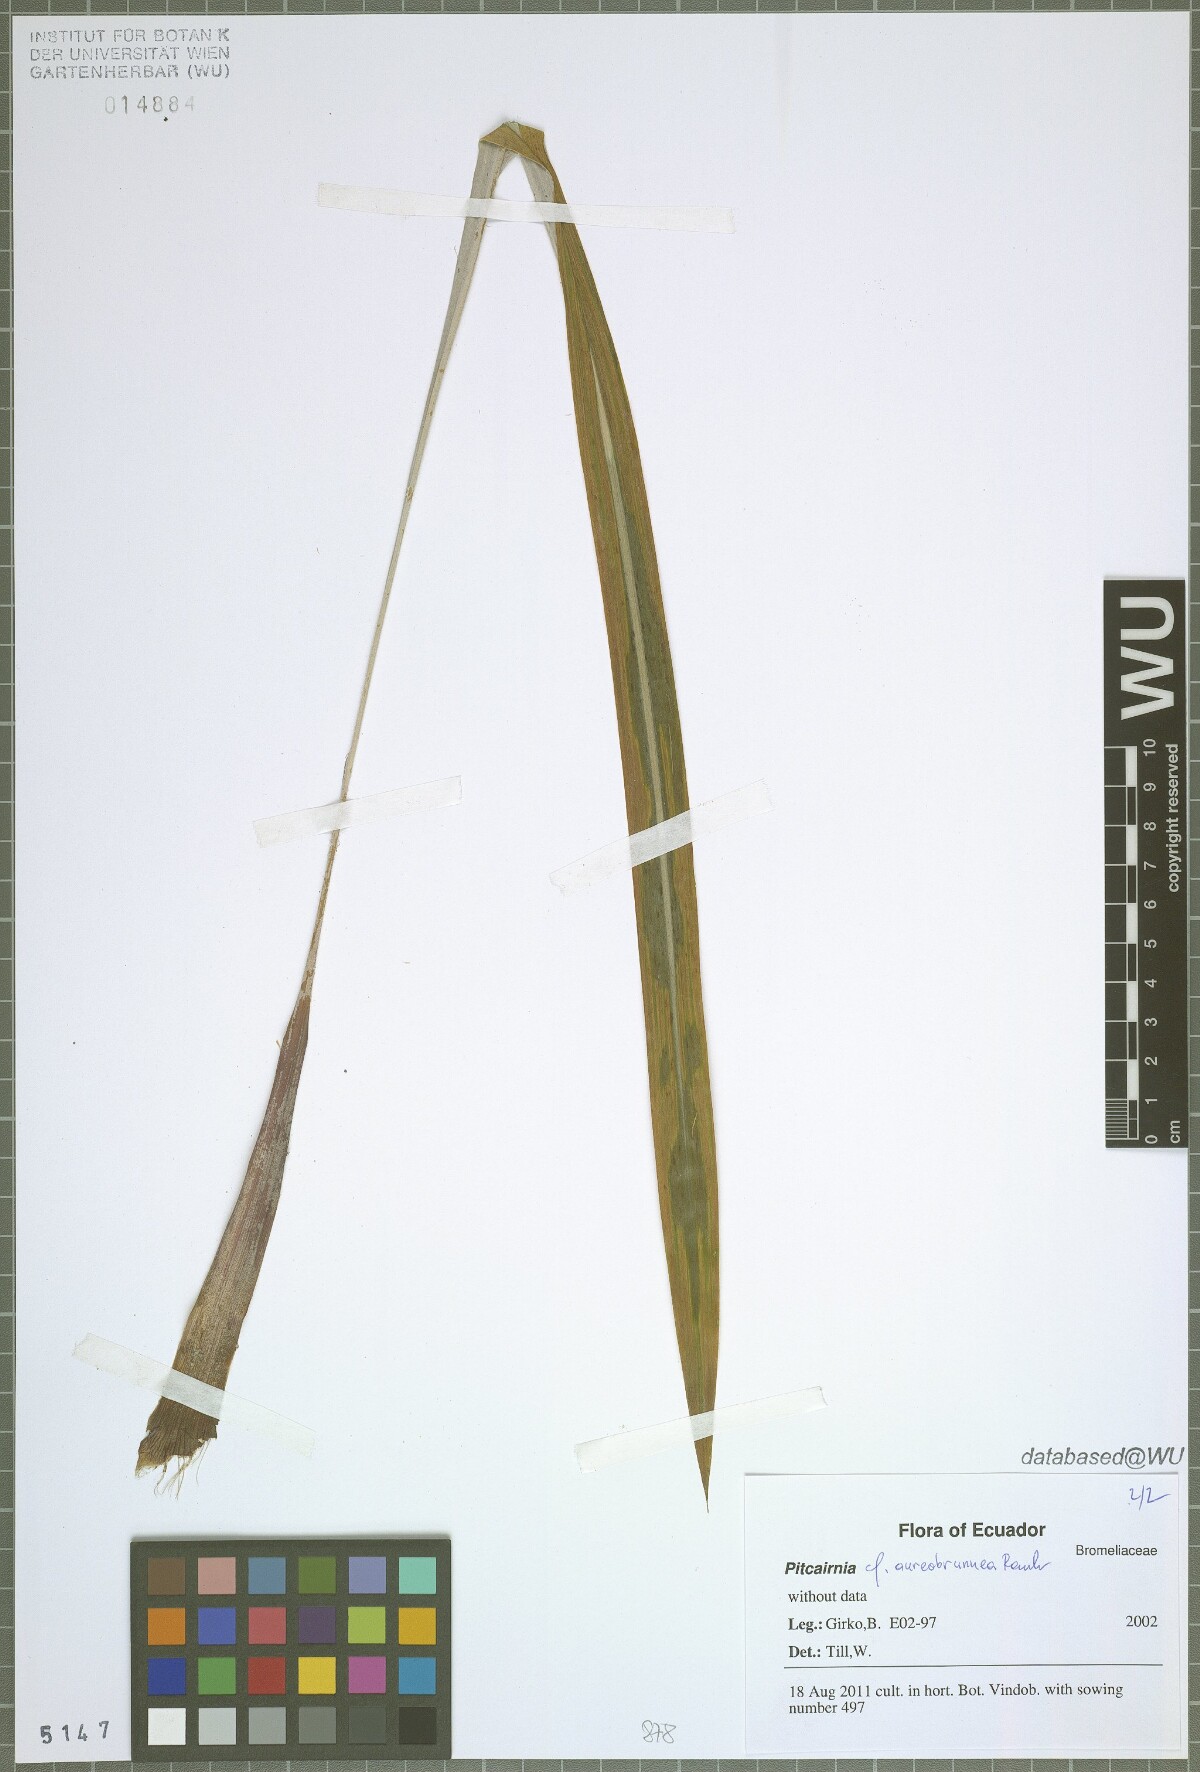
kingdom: Plantae
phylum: Tracheophyta
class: Liliopsida
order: Poales
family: Bromeliaceae
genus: Pitcairnia
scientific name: Pitcairnia aureobrunnea
